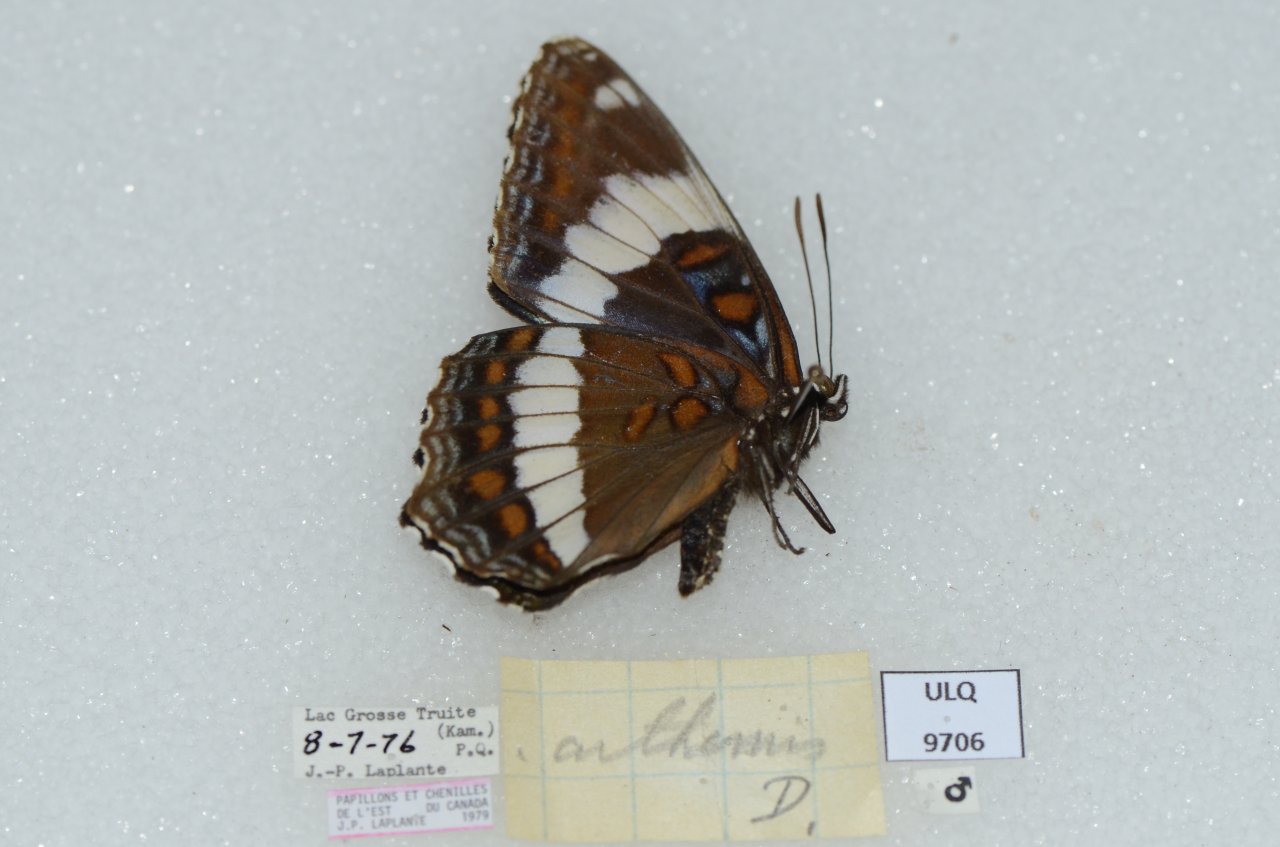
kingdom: Animalia
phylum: Arthropoda
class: Insecta
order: Lepidoptera
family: Nymphalidae
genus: Limenitis
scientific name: Limenitis arthemis
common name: Red-spotted Admiral
